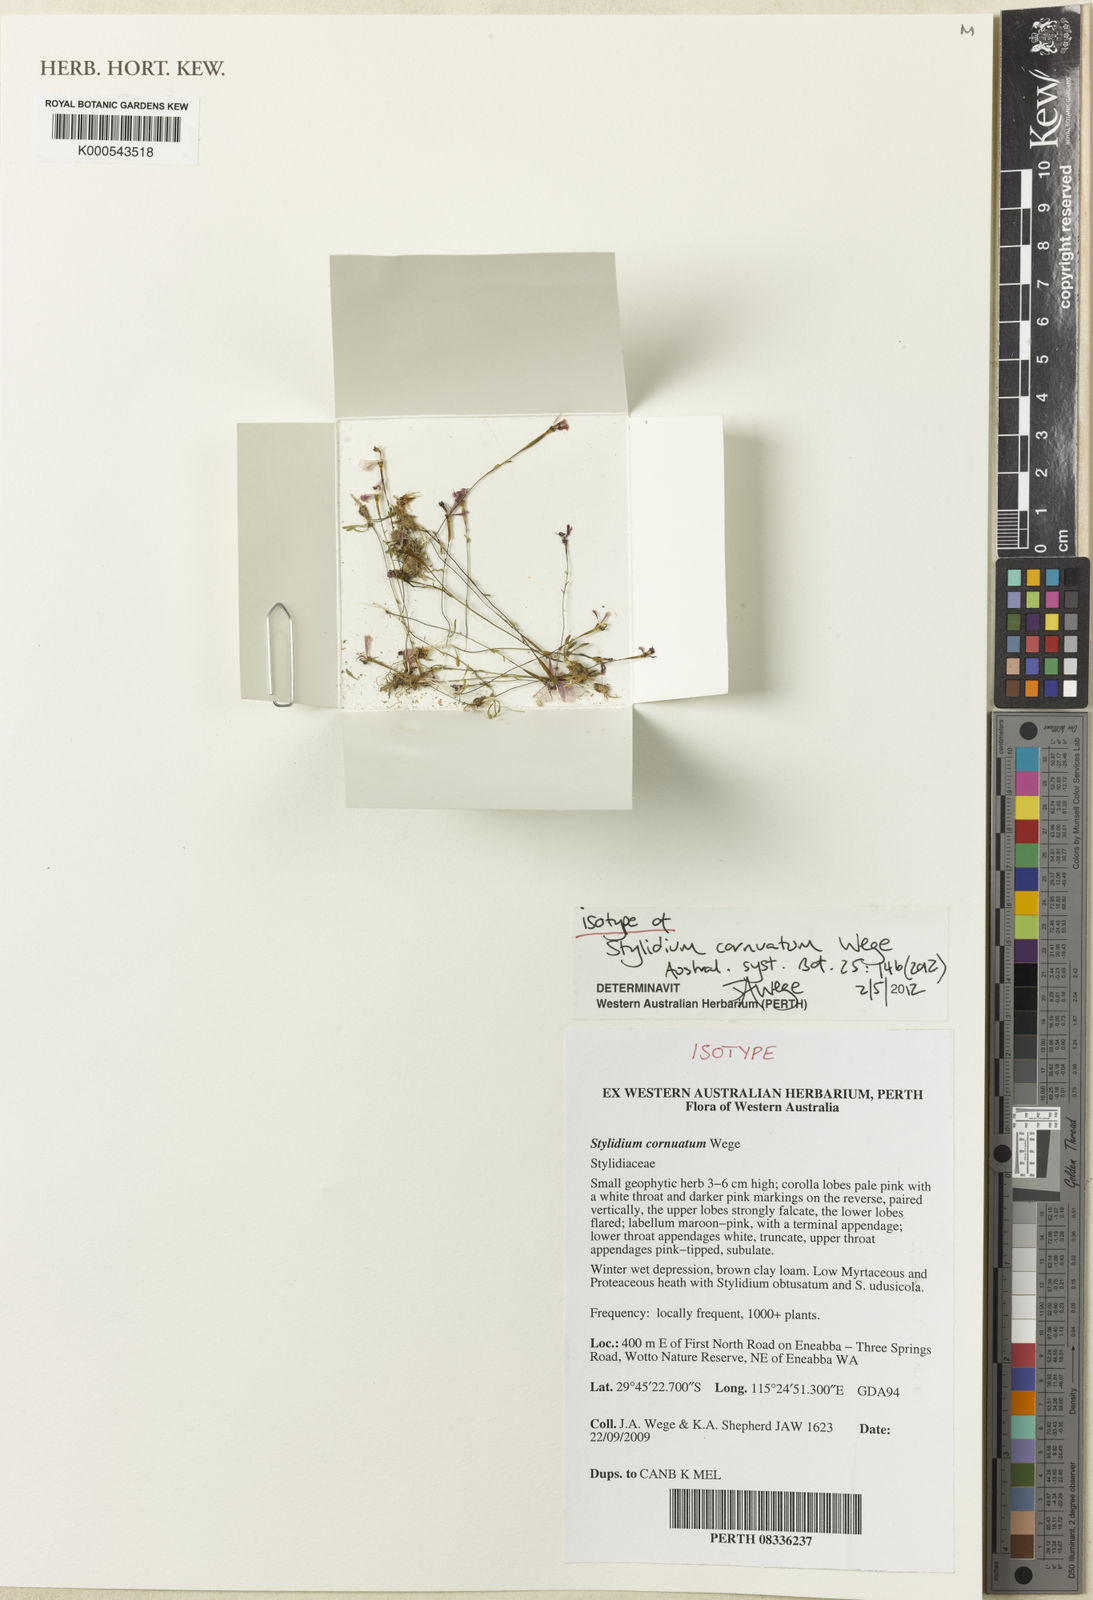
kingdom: Plantae
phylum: Tracheophyta
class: Magnoliopsida
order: Asterales
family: Stylidiaceae
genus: Stylidium
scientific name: Stylidium cornuatum
